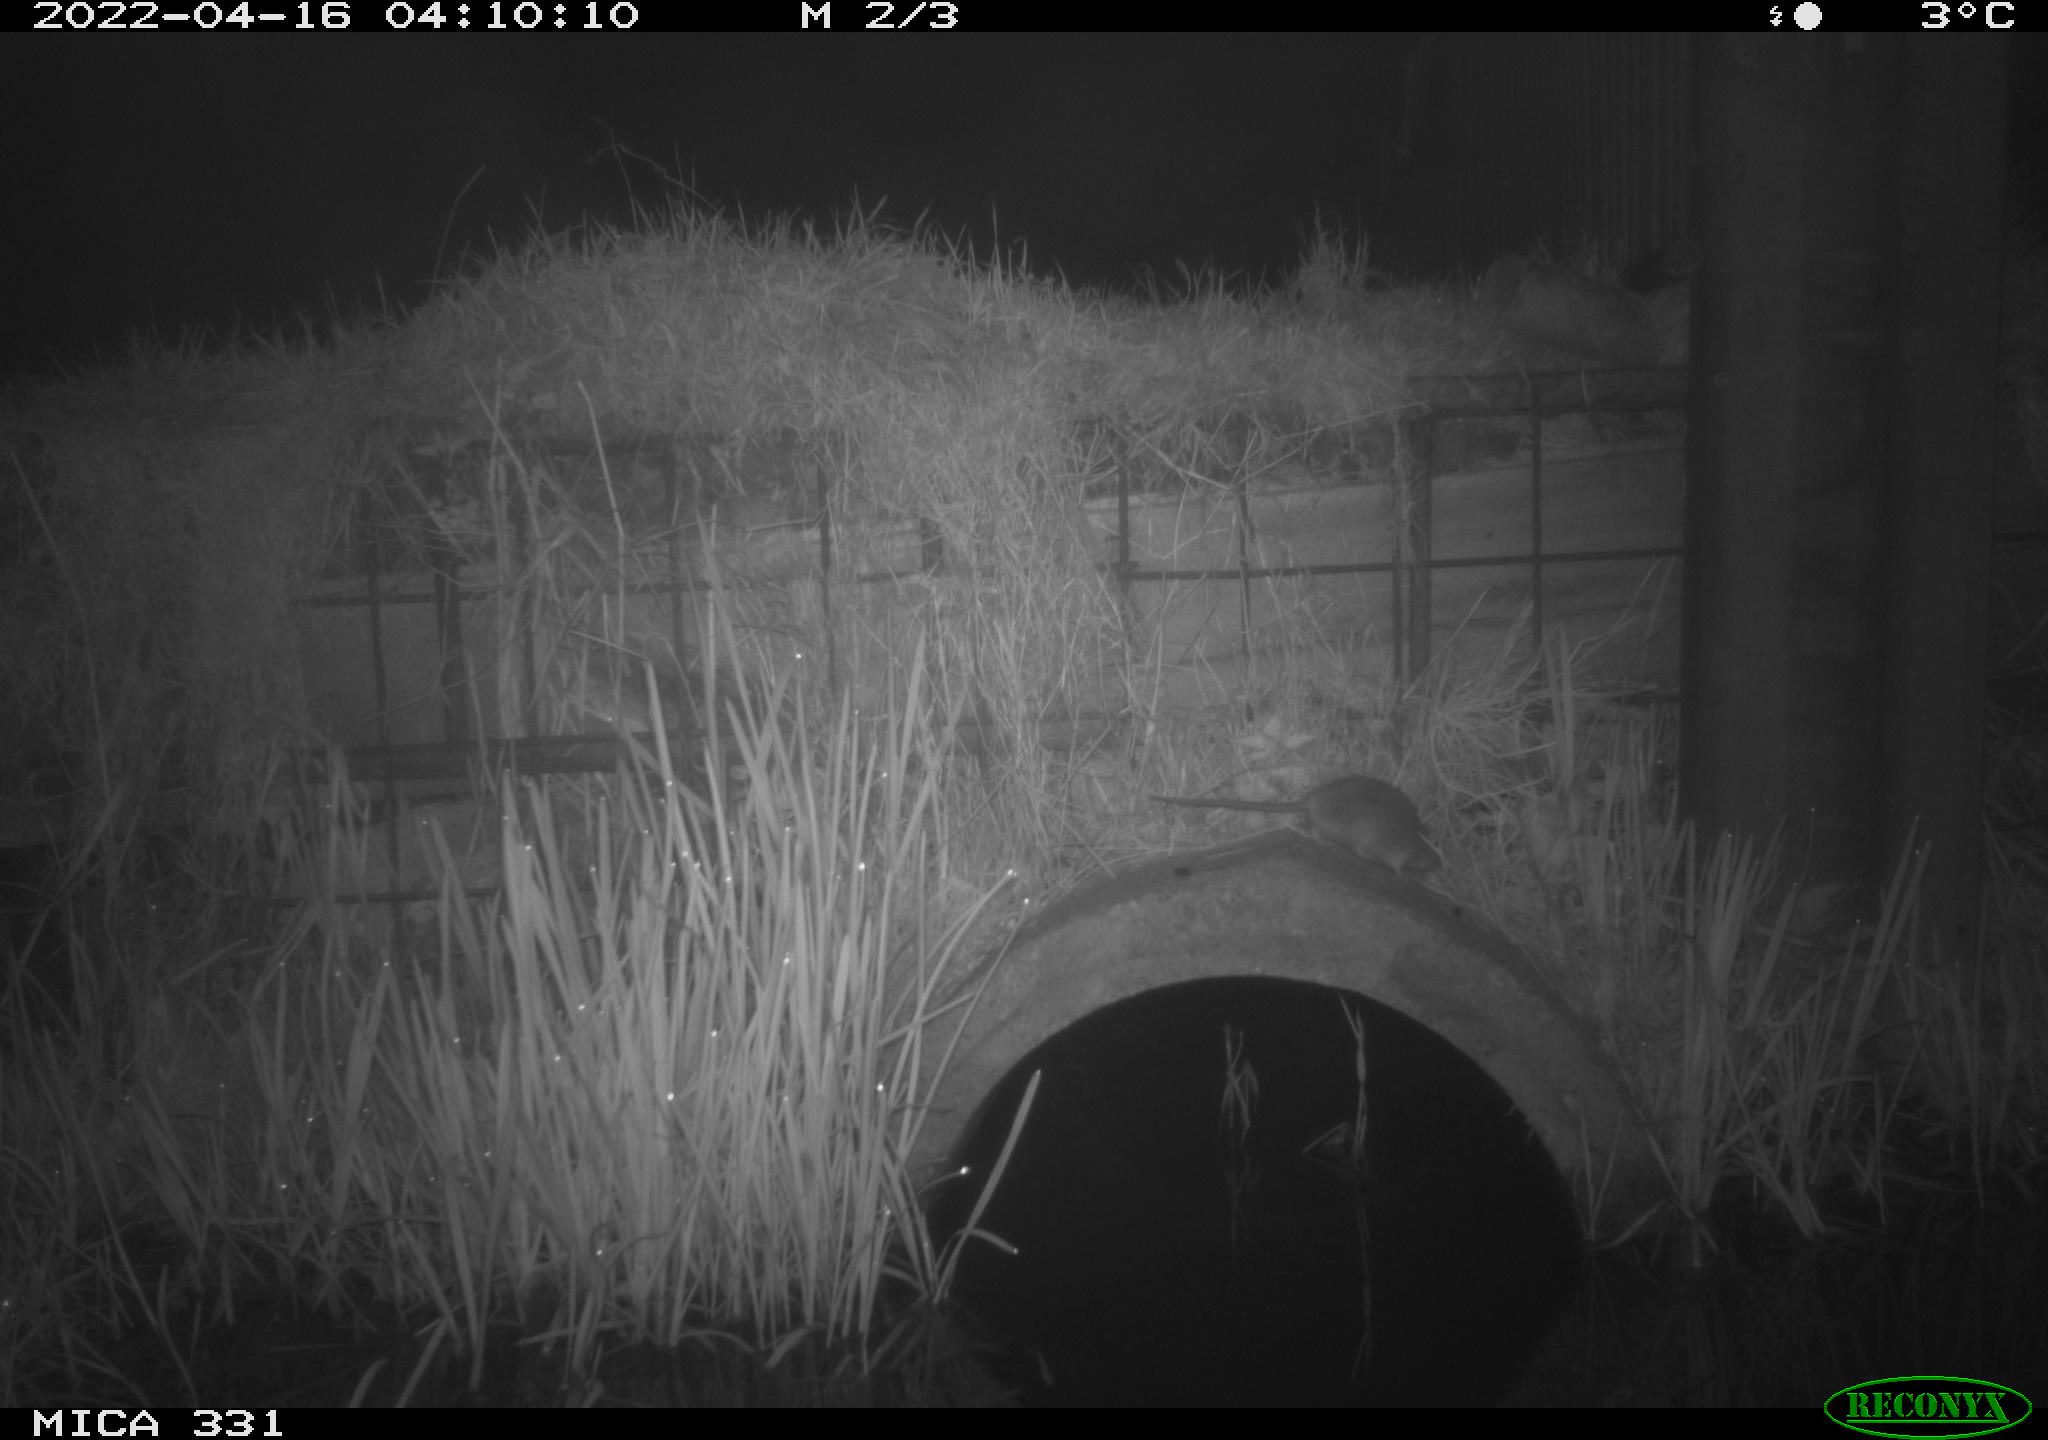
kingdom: Animalia
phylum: Chordata
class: Mammalia
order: Rodentia
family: Muridae
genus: Rattus
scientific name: Rattus norvegicus
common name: Brown rat
